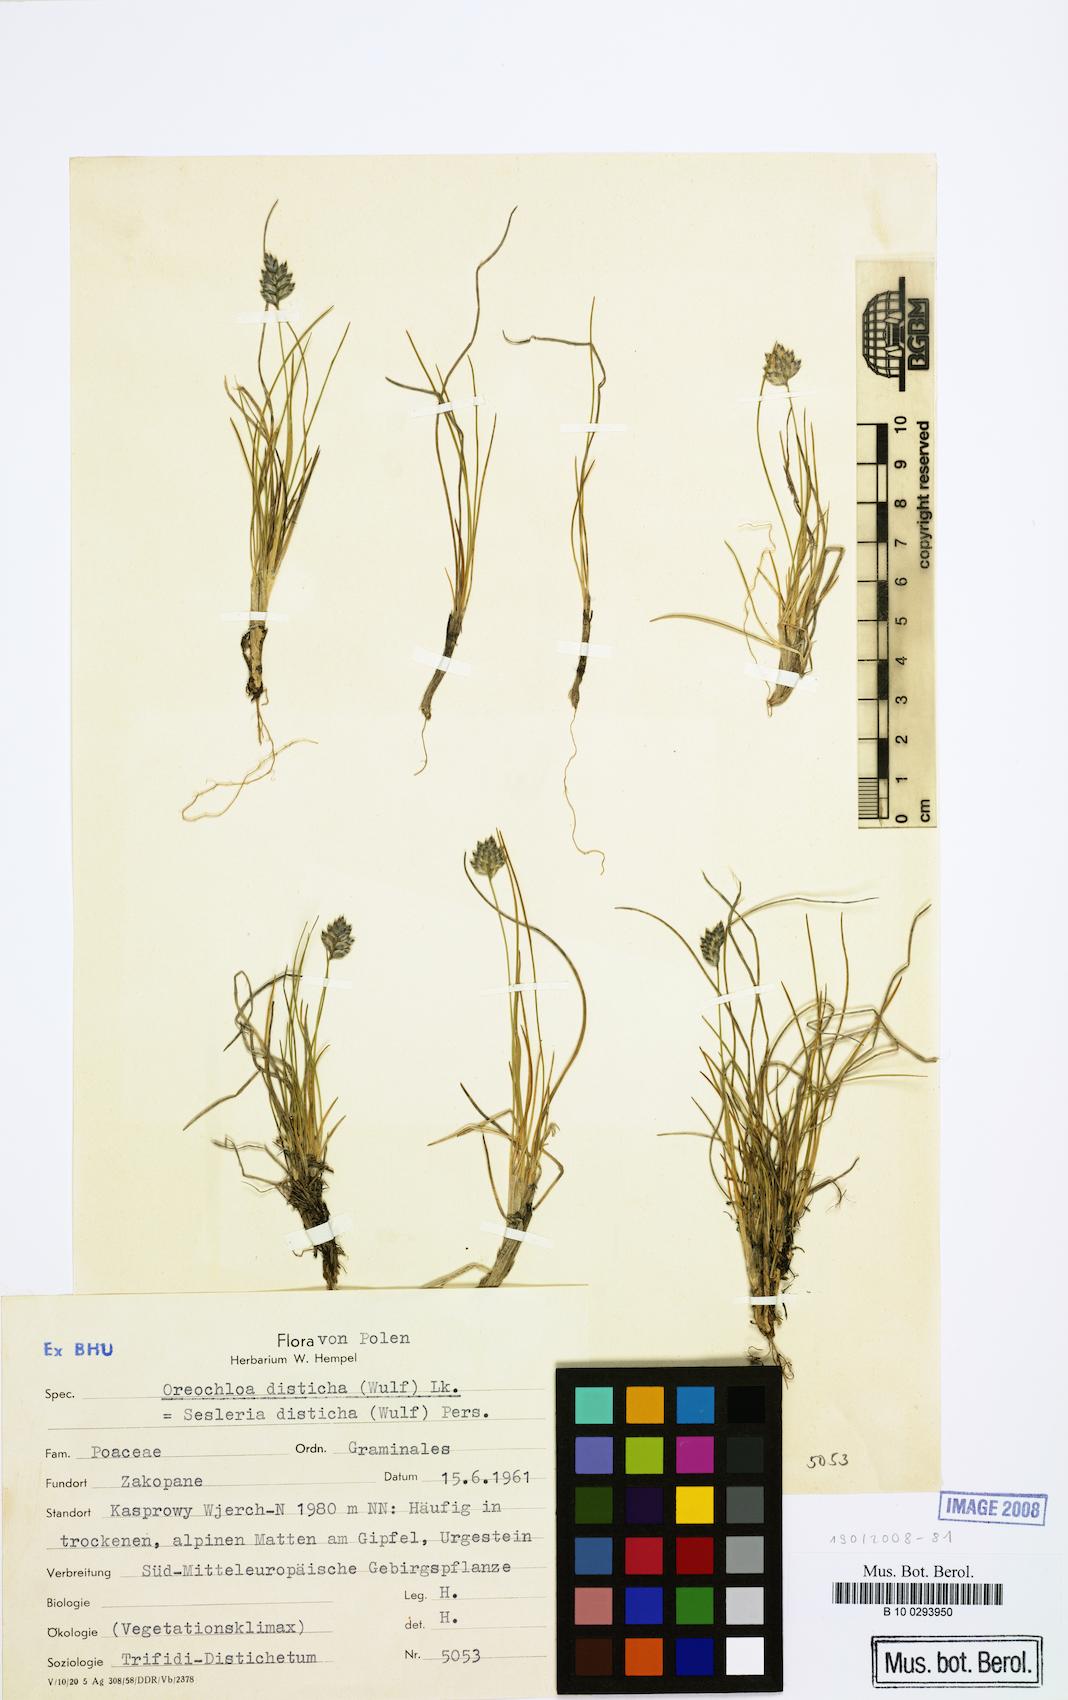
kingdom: Plantae
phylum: Tracheophyta
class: Liliopsida
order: Poales
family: Poaceae
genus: Oreochloa
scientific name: Oreochloa disticha
